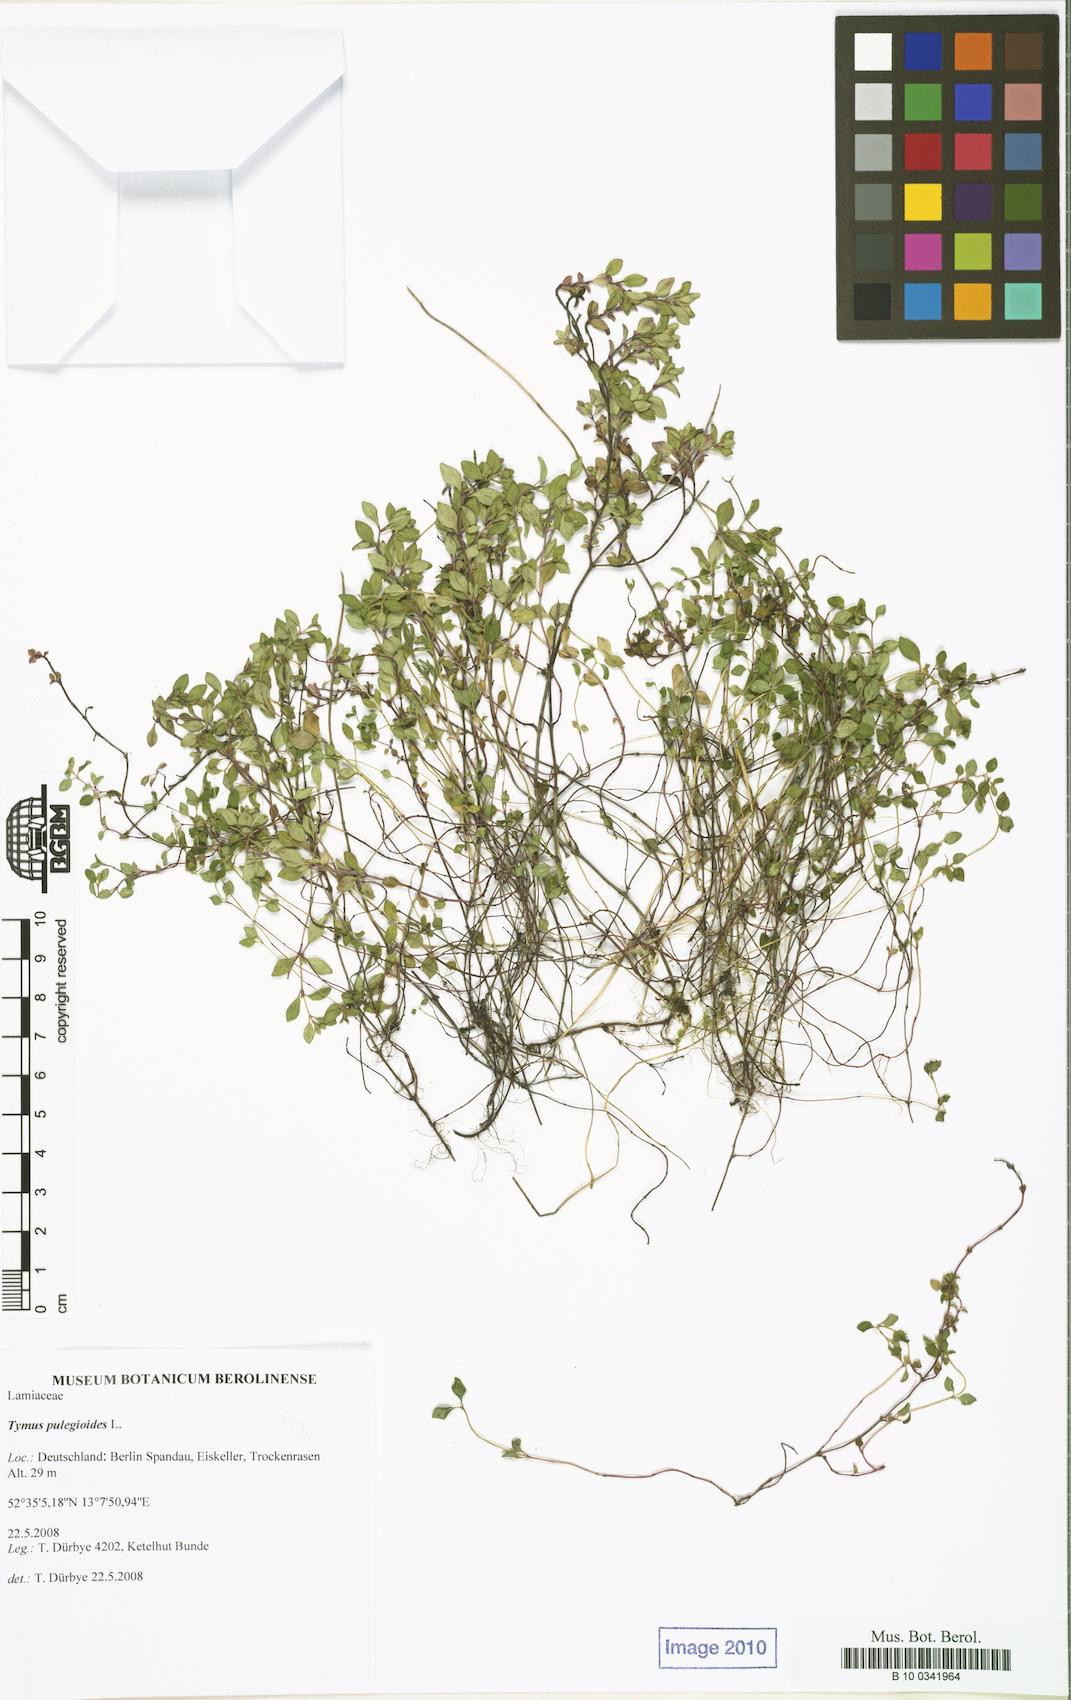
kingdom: Plantae
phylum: Tracheophyta
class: Magnoliopsida
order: Lamiales
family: Lamiaceae
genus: Thymus
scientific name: Thymus pulegioides
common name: Large thyme
